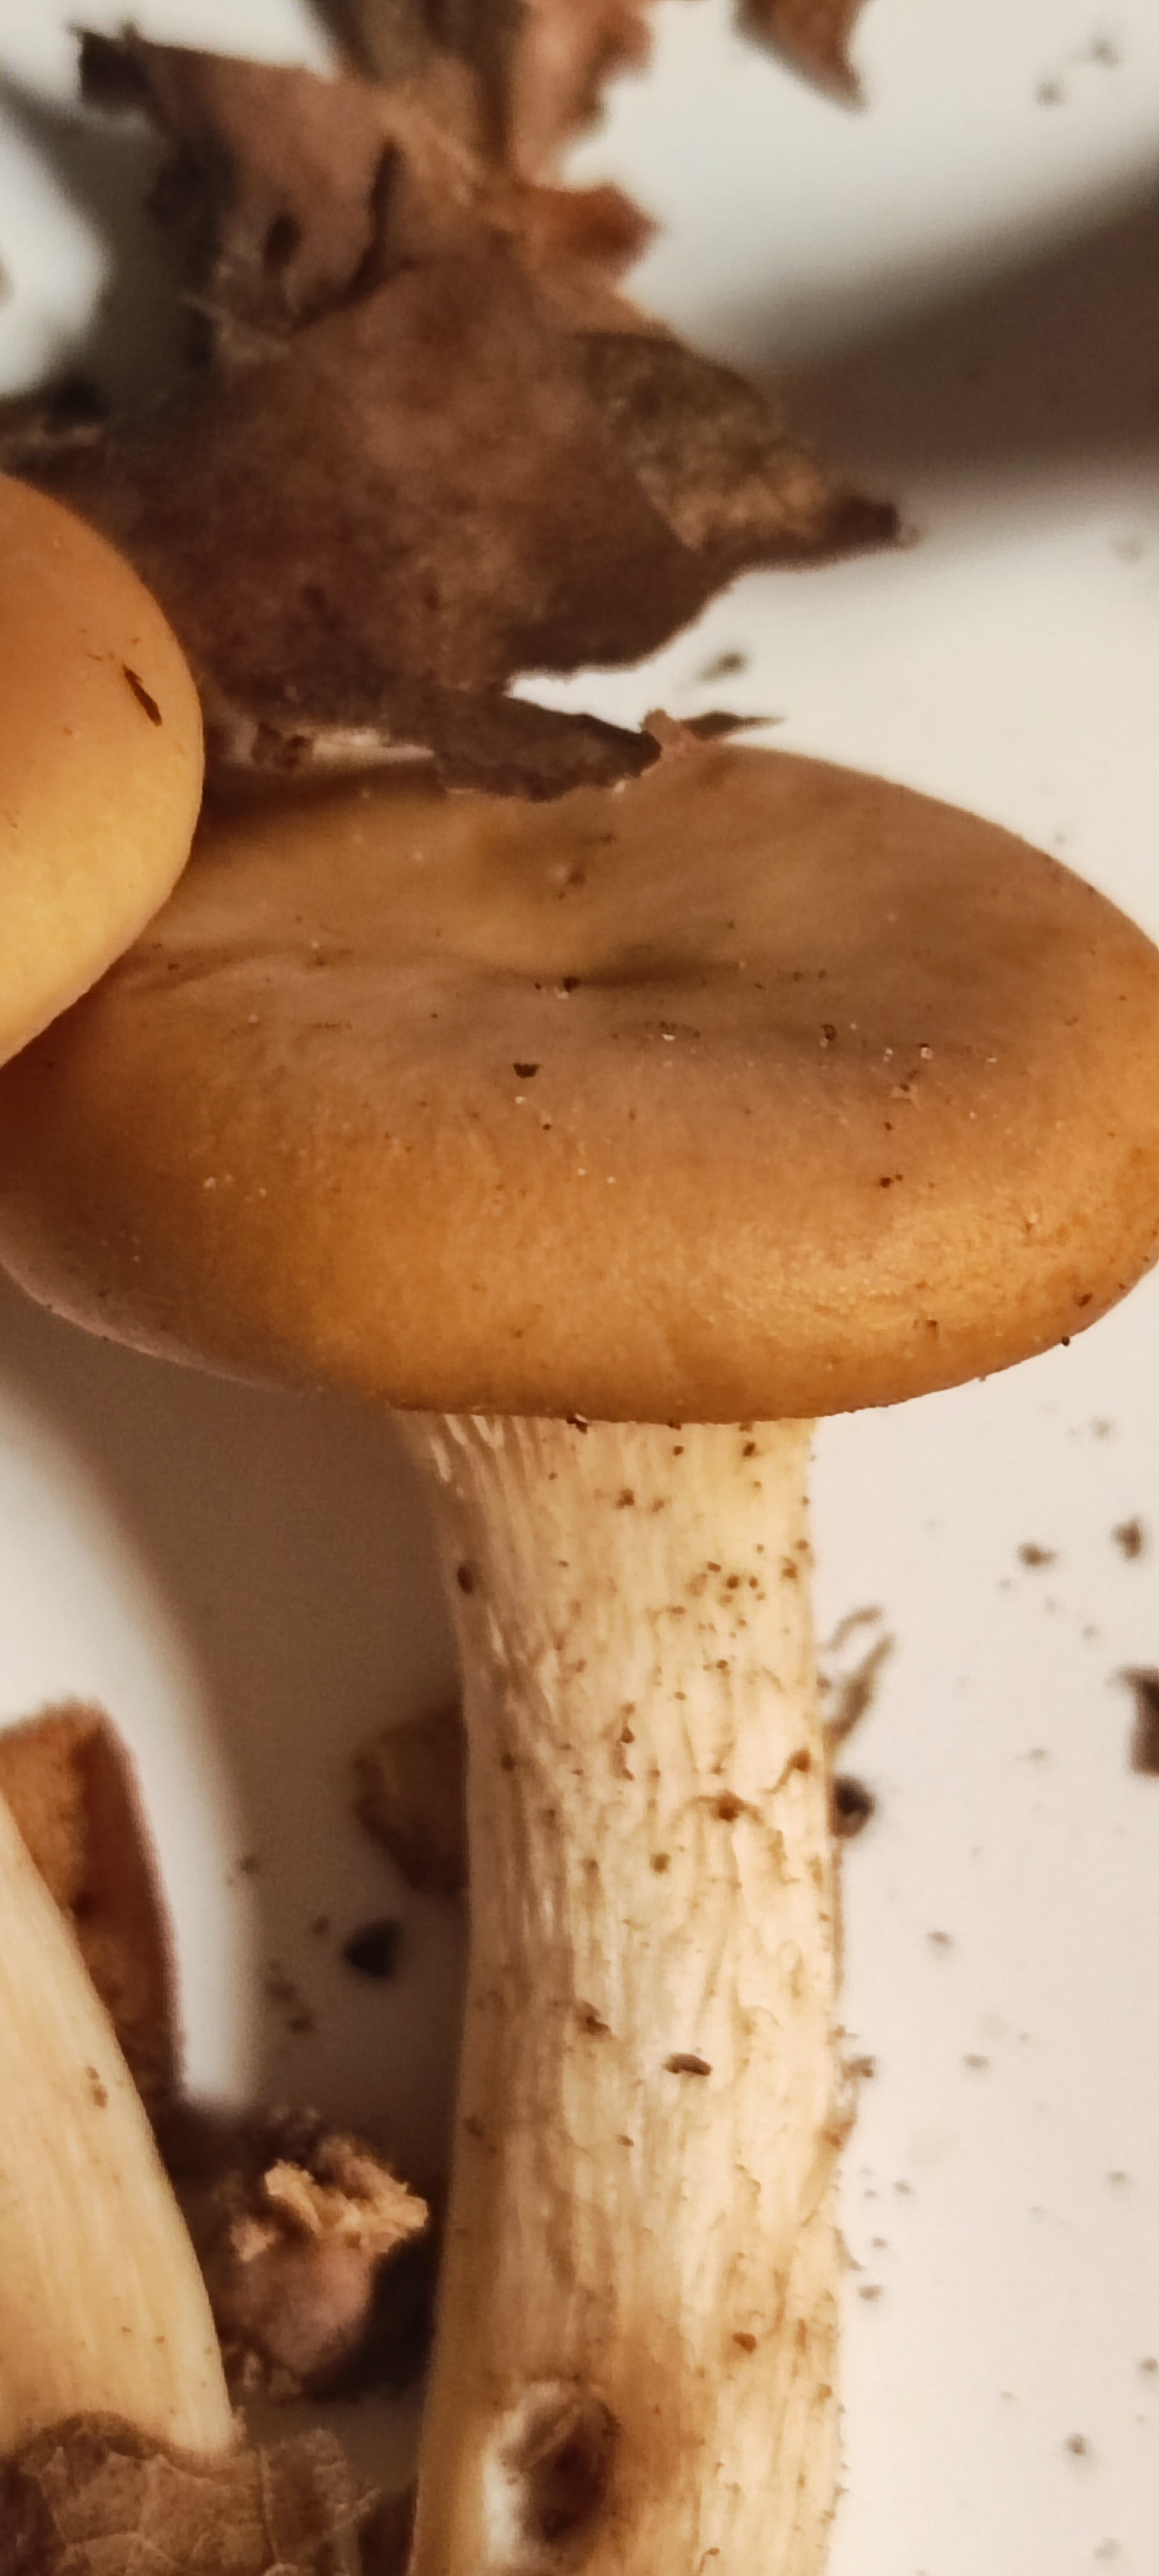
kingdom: Fungi
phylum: Basidiomycota
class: Agaricomycetes
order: Agaricales
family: Tricholomataceae
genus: Paralepista
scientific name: Paralepista
